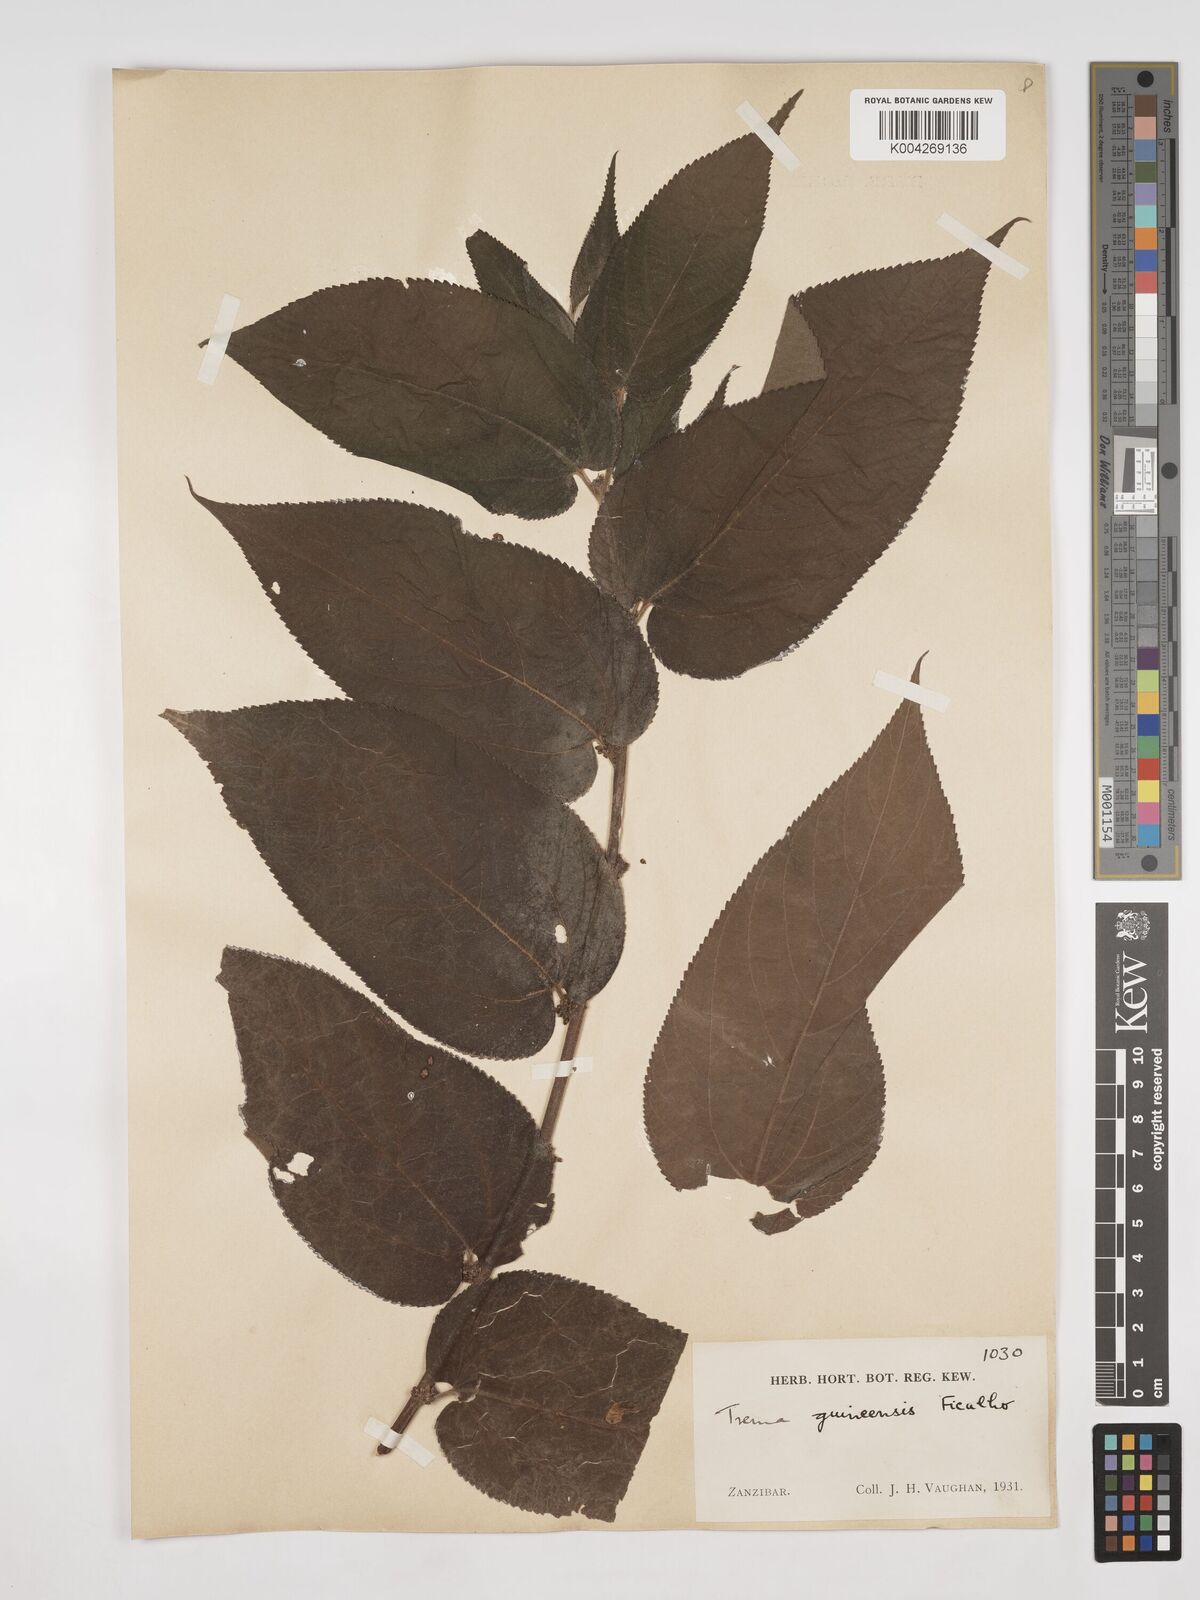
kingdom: Plantae
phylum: Tracheophyta
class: Magnoliopsida
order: Rosales
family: Cannabaceae
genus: Trema
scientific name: Trema orientale
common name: Indian charcoal tree
